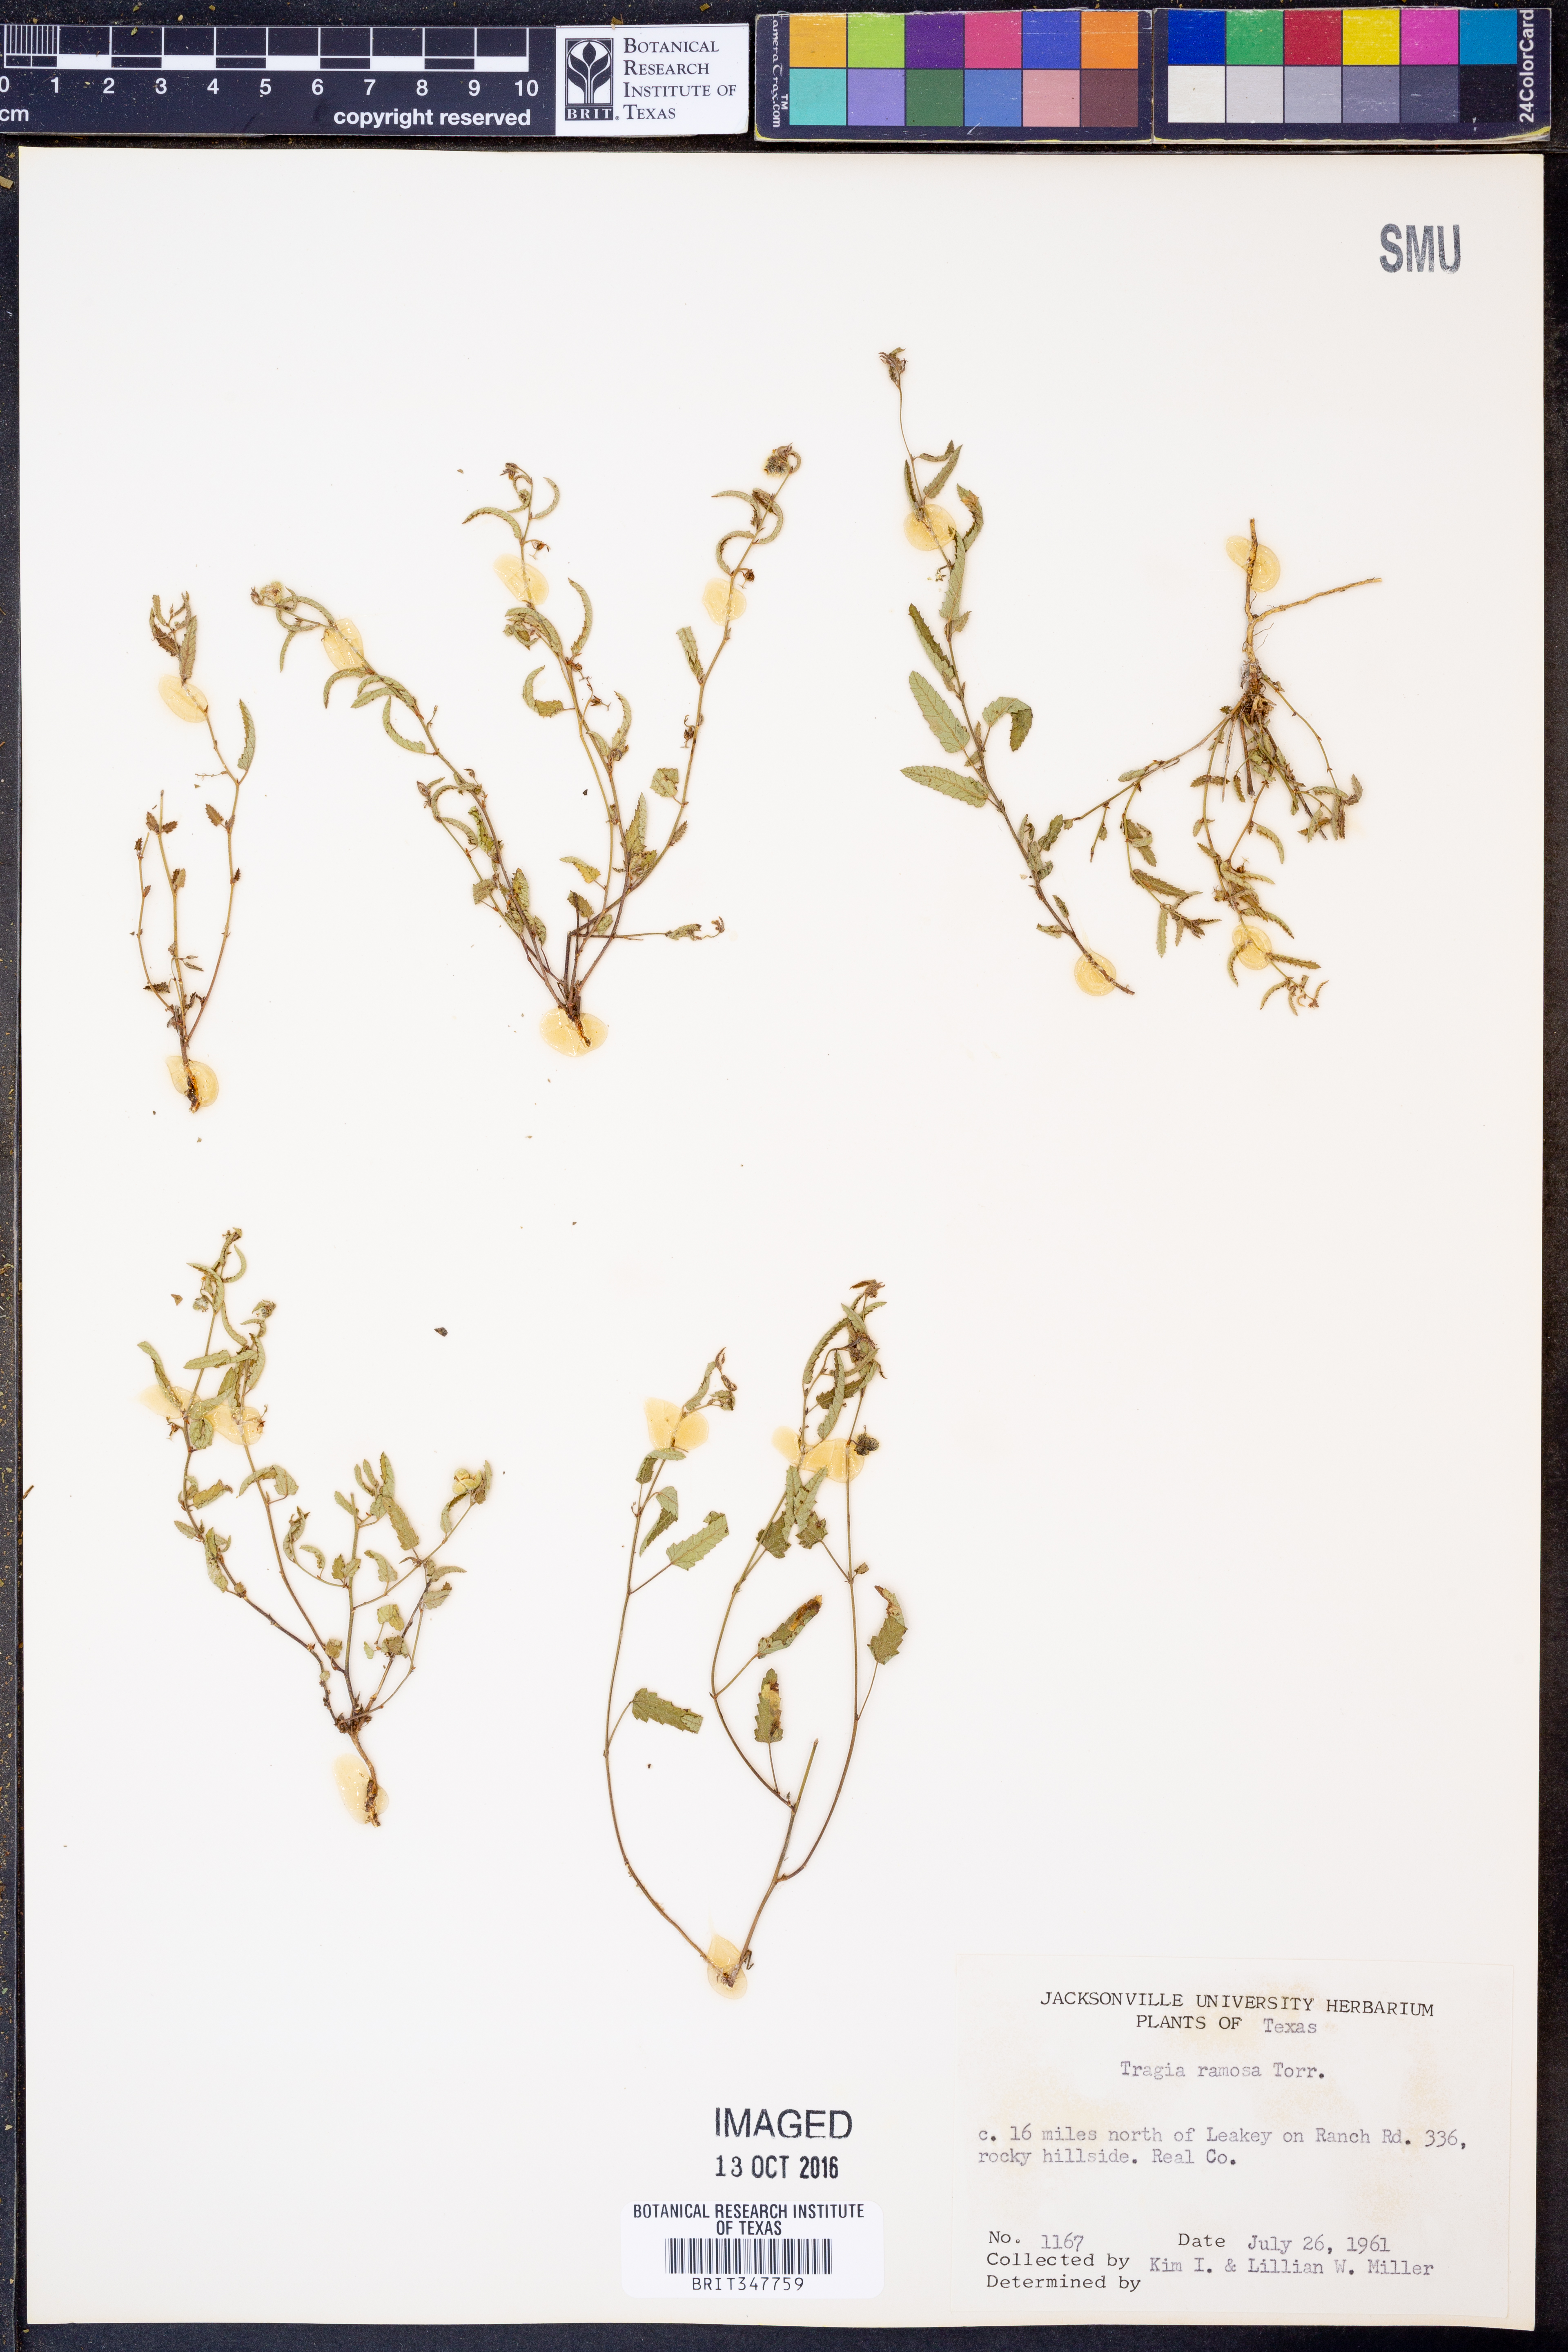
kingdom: Plantae
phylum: Tracheophyta
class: Magnoliopsida
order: Malpighiales
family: Euphorbiaceae
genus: Tragia
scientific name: Tragia ramosa
